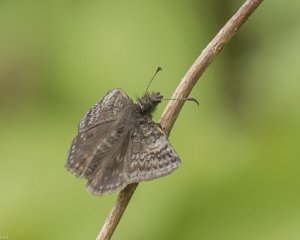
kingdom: Animalia
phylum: Arthropoda
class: Insecta
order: Lepidoptera
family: Hesperiidae
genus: Erynnis
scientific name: Erynnis icelus
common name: Dreamy Duskywing
